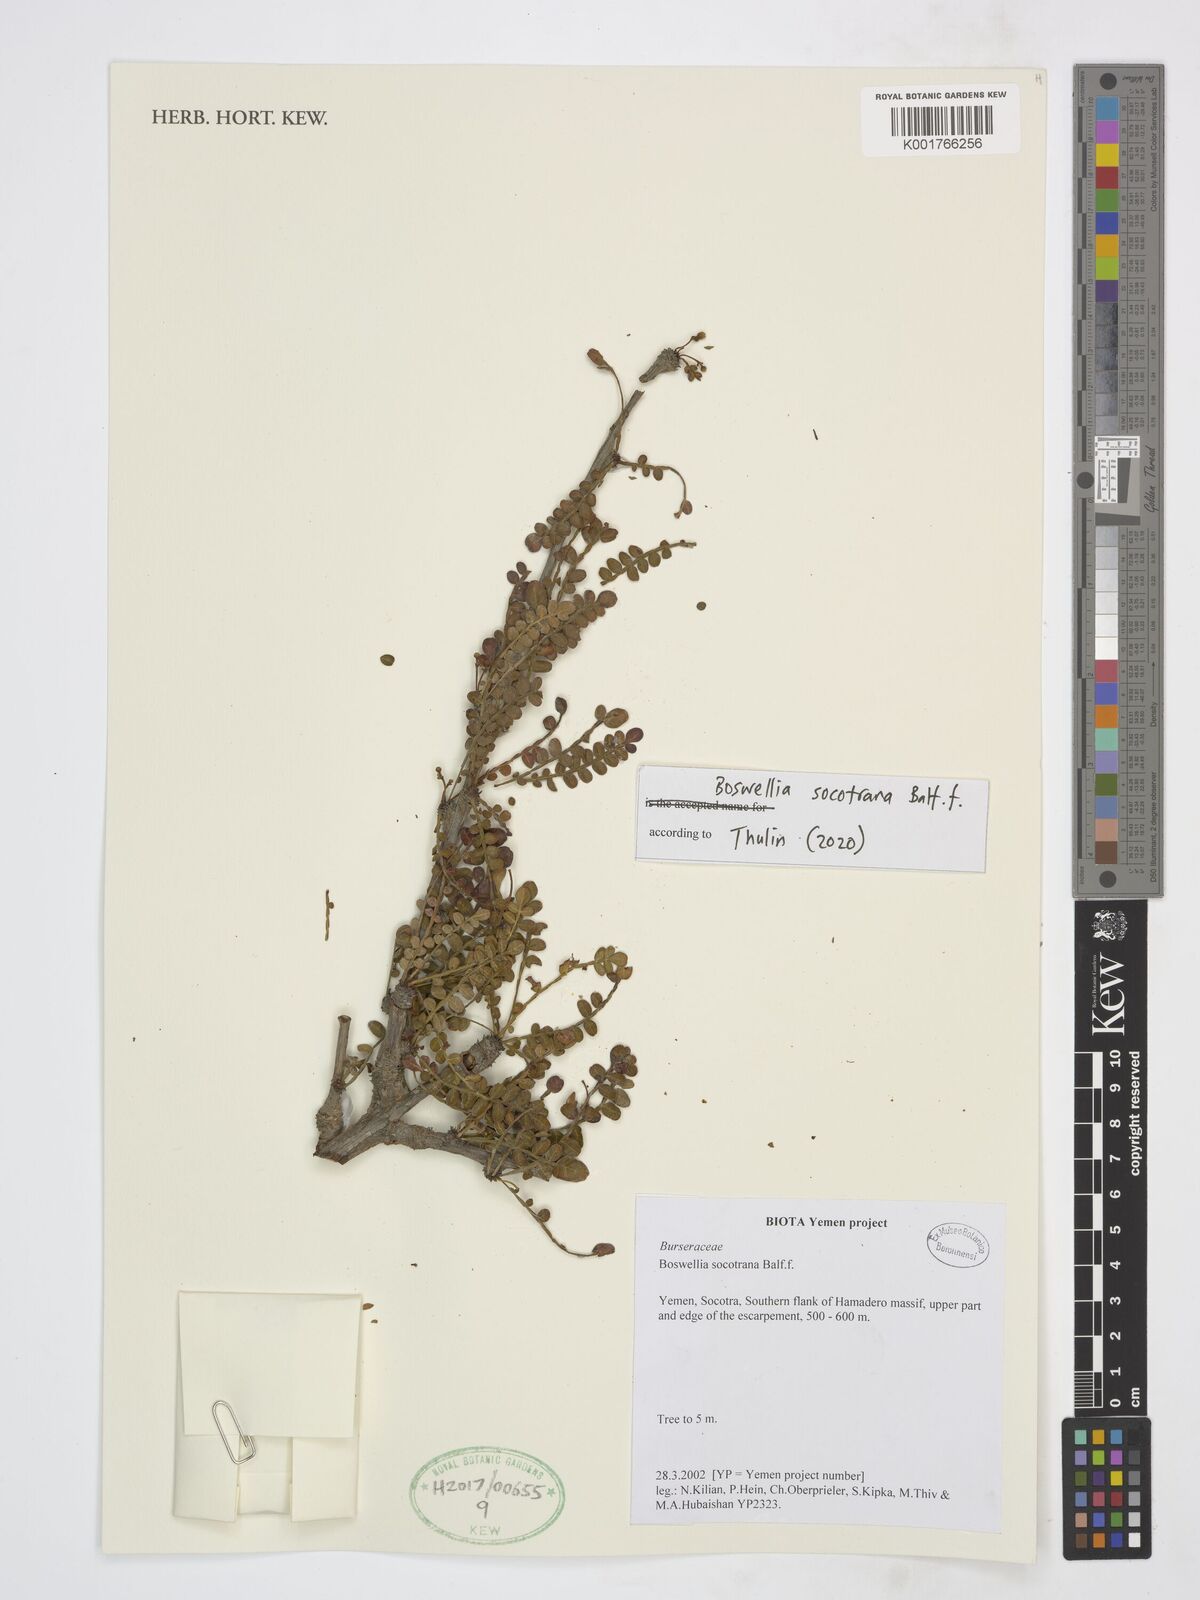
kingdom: Plantae
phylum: Tracheophyta
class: Magnoliopsida
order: Sapindales
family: Burseraceae
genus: Boswellia
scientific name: Boswellia socotrana
